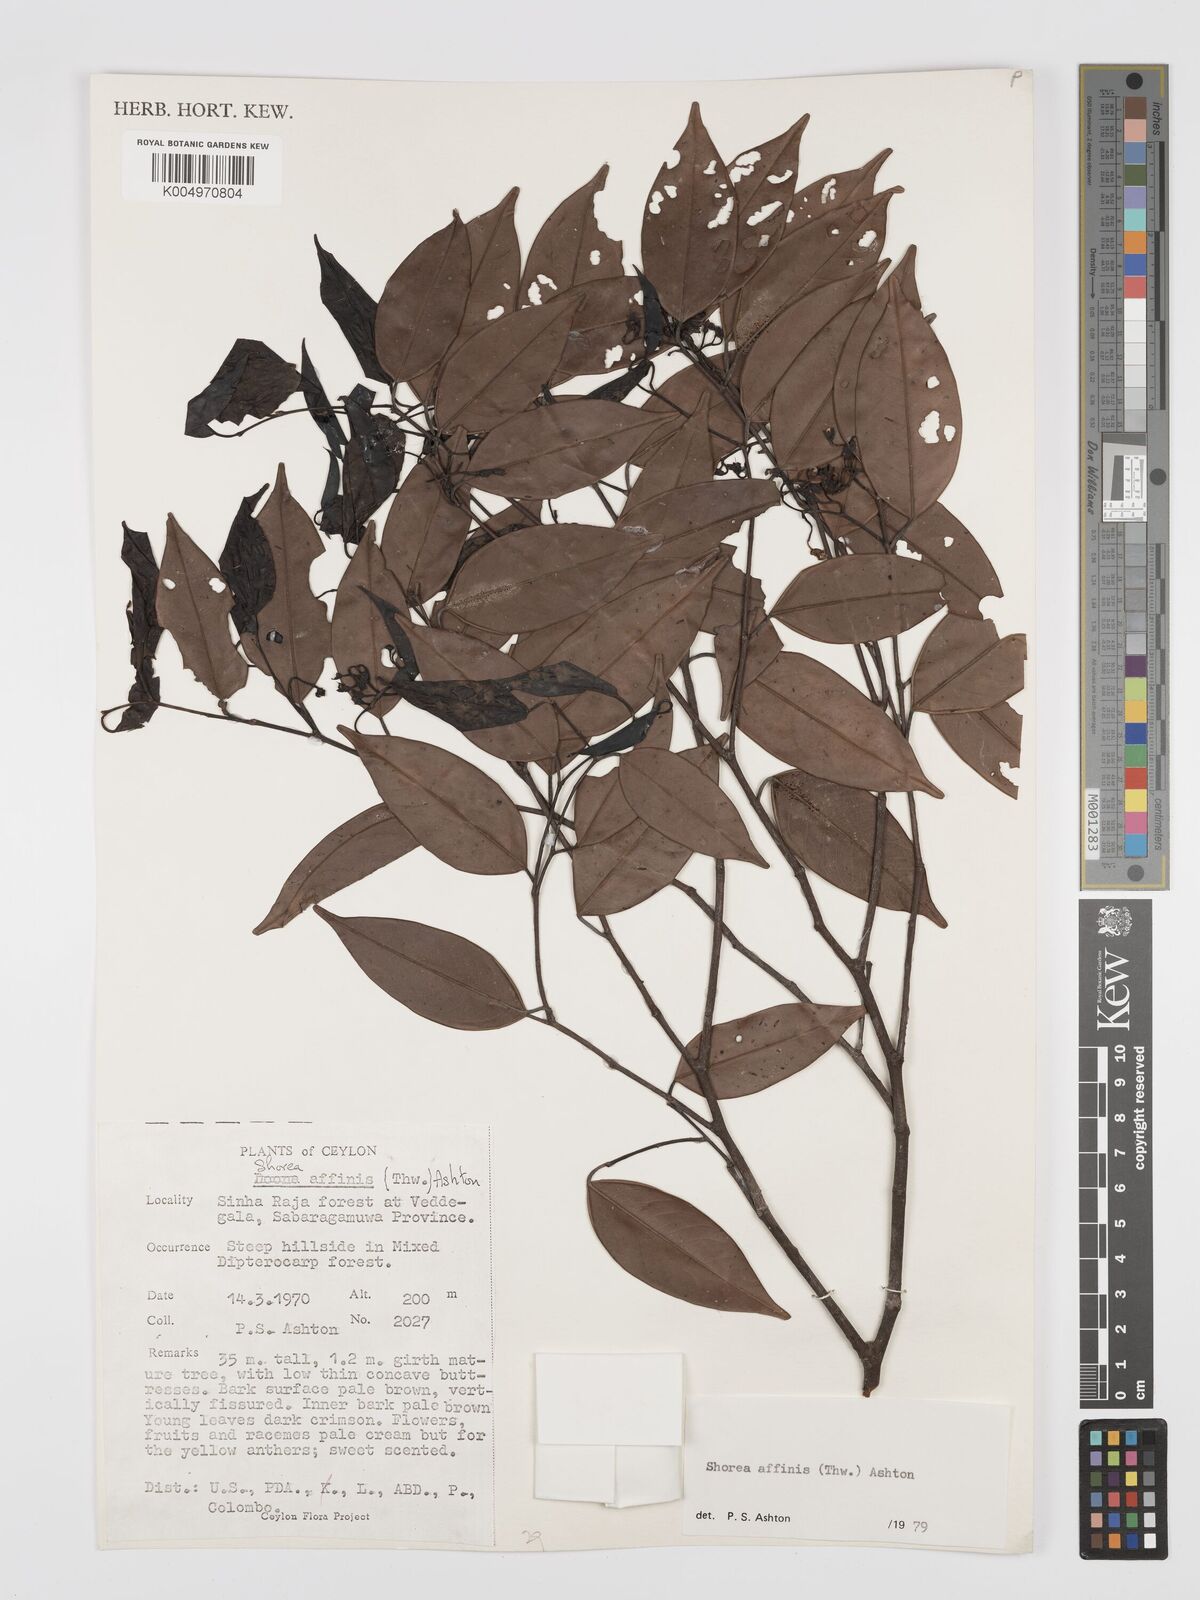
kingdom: Plantae
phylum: Tracheophyta
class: Magnoliopsida
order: Malvales
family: Dipterocarpaceae
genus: Doona
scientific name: Doona affinis
